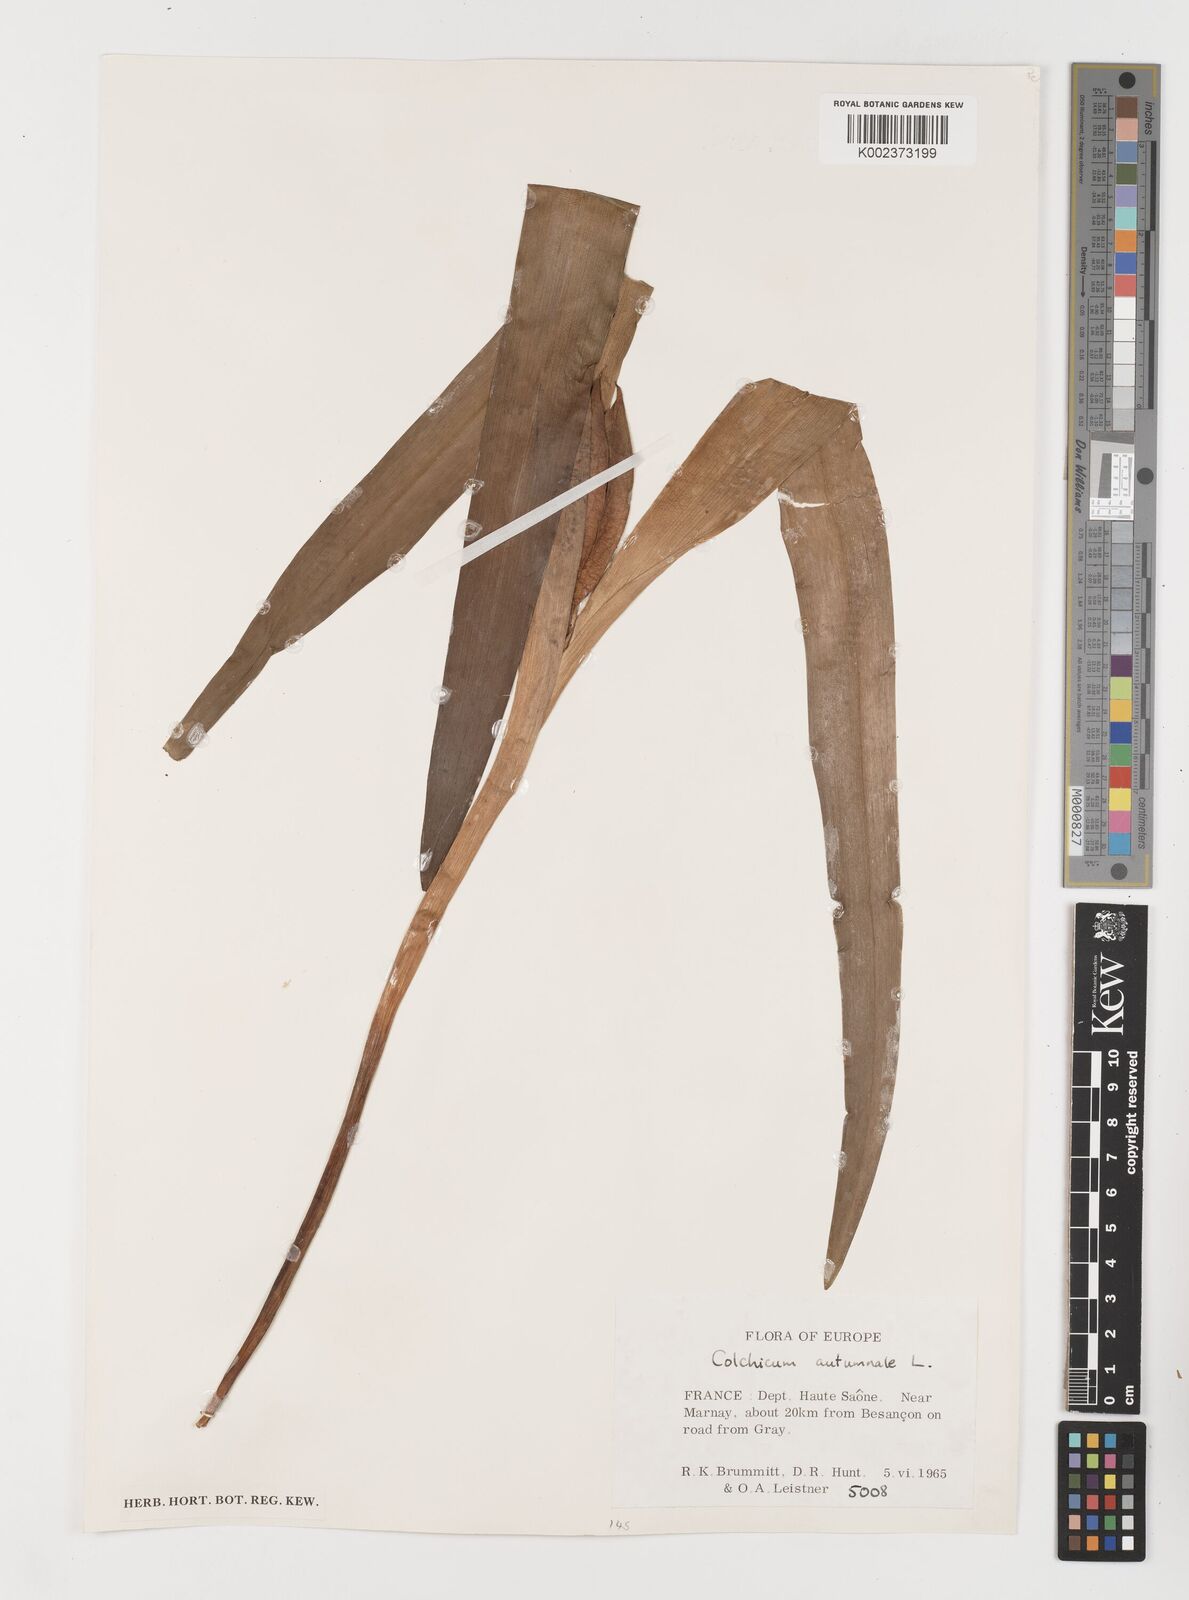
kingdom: Plantae
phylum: Tracheophyta
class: Liliopsida
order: Liliales
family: Colchicaceae
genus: Colchicum
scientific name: Colchicum autumnale
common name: Autumn crocus
